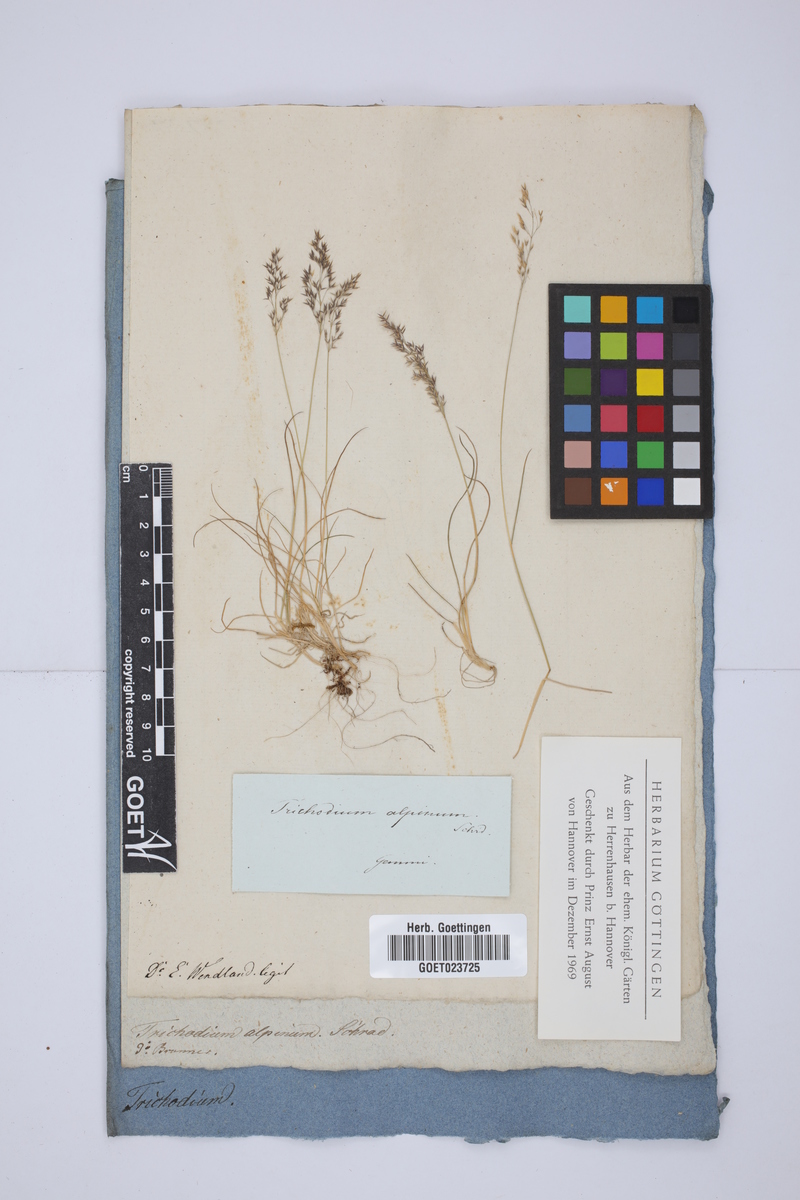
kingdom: Plantae
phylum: Tracheophyta
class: Liliopsida
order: Poales
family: Poaceae
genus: Agrostis
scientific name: Agrostis rupestris
